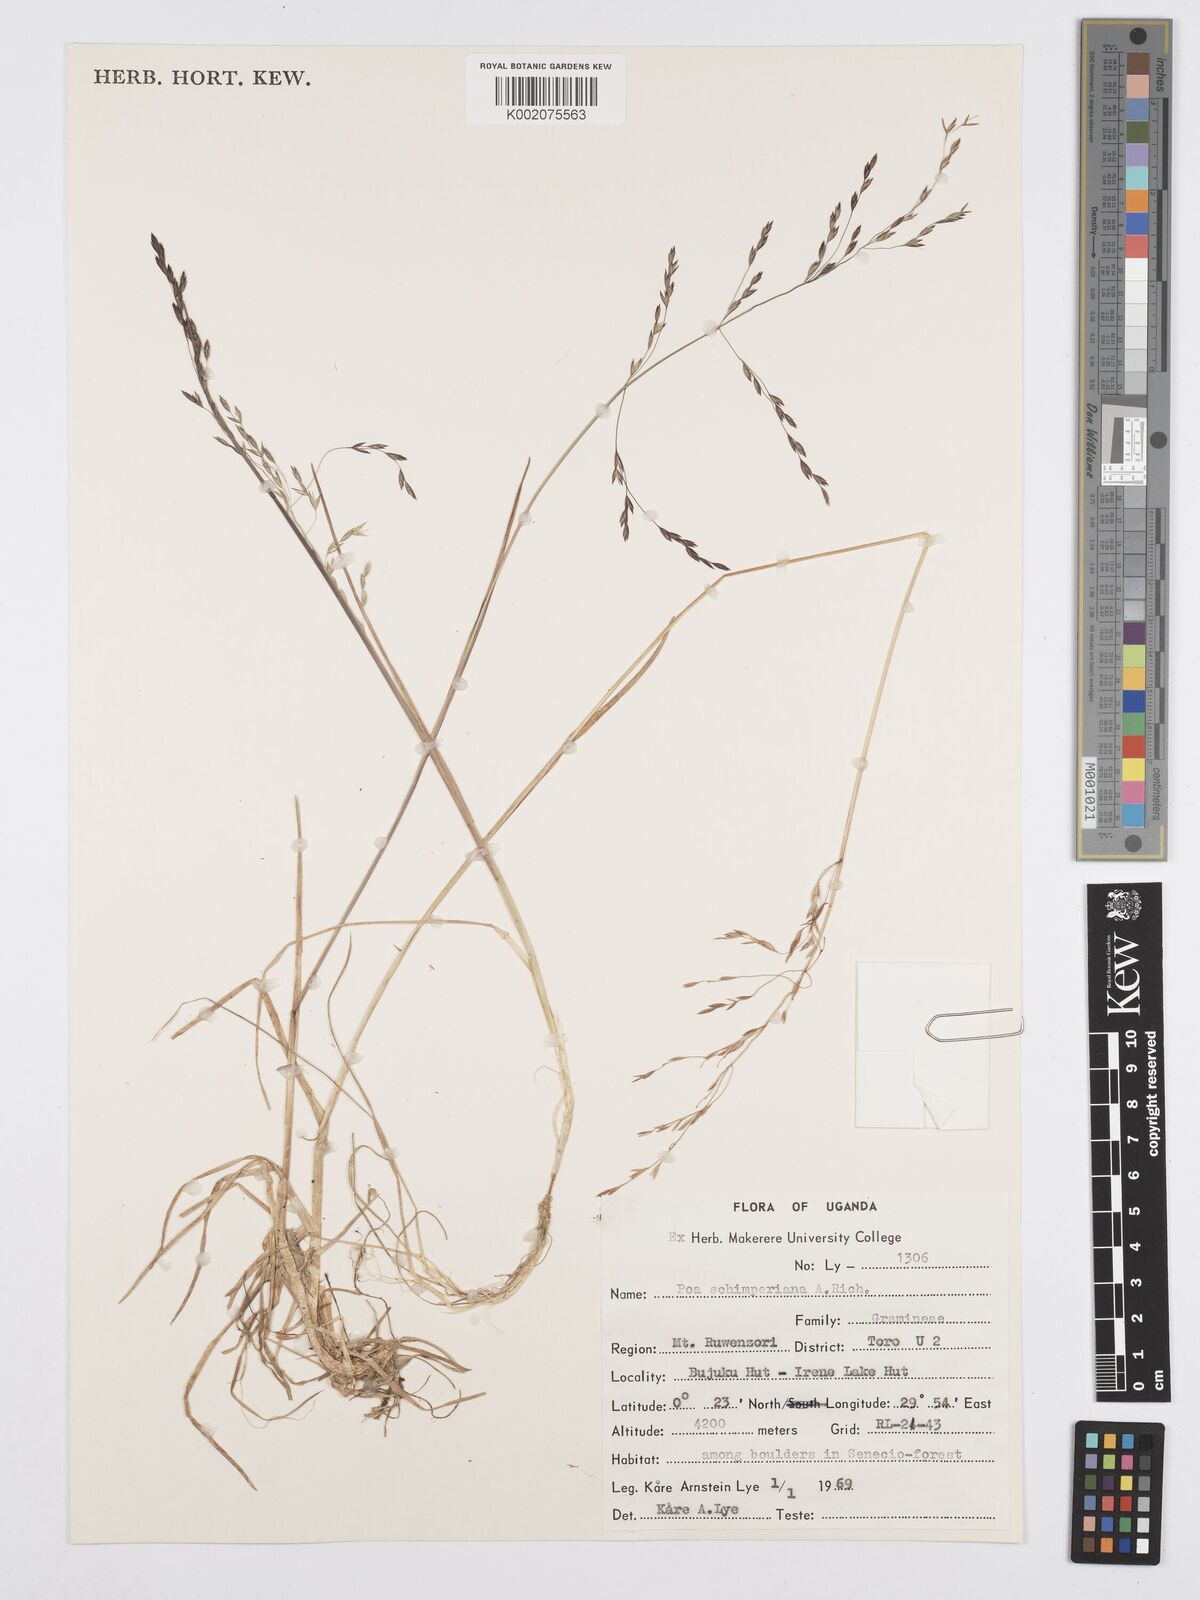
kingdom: Plantae
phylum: Tracheophyta
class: Liliopsida
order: Poales
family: Poaceae
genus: Poa
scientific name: Poa schimperiana
